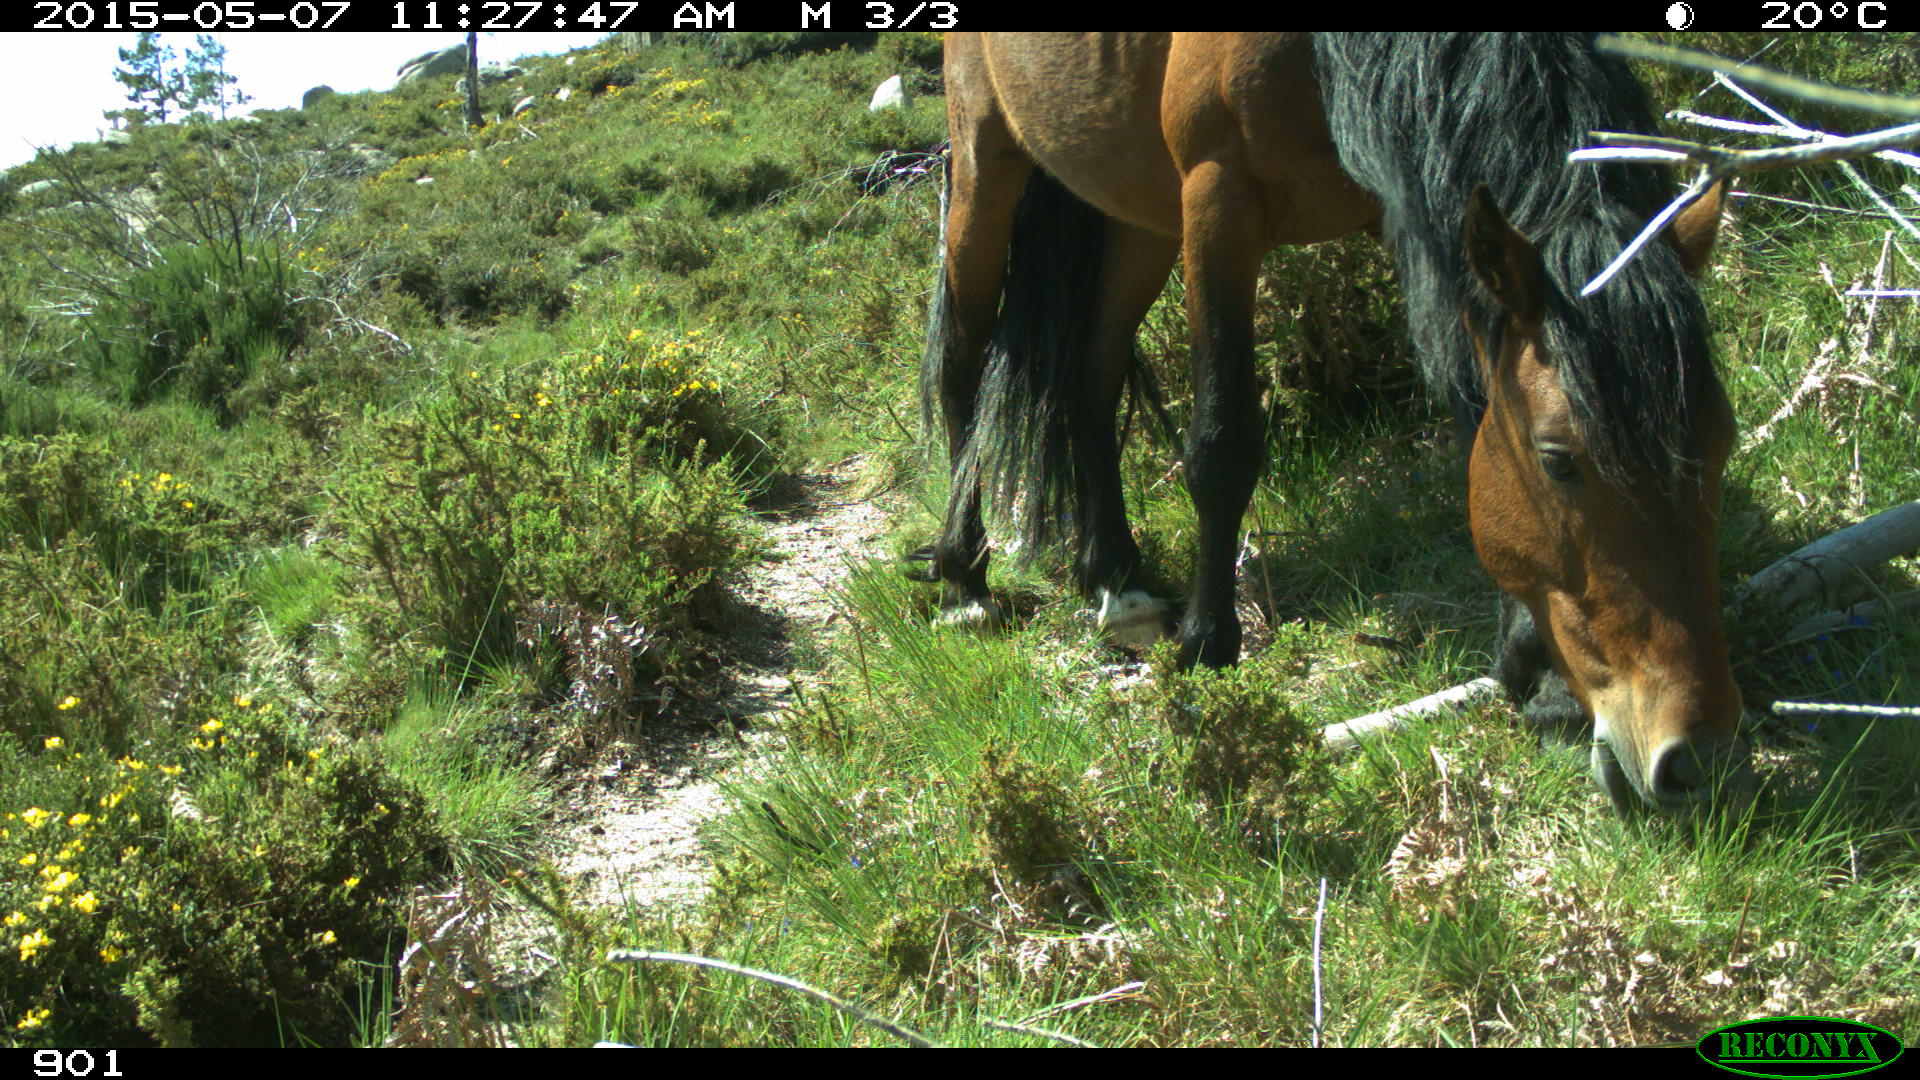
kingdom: Animalia
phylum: Chordata
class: Mammalia
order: Perissodactyla
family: Equidae
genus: Equus
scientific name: Equus caballus
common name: Horse
